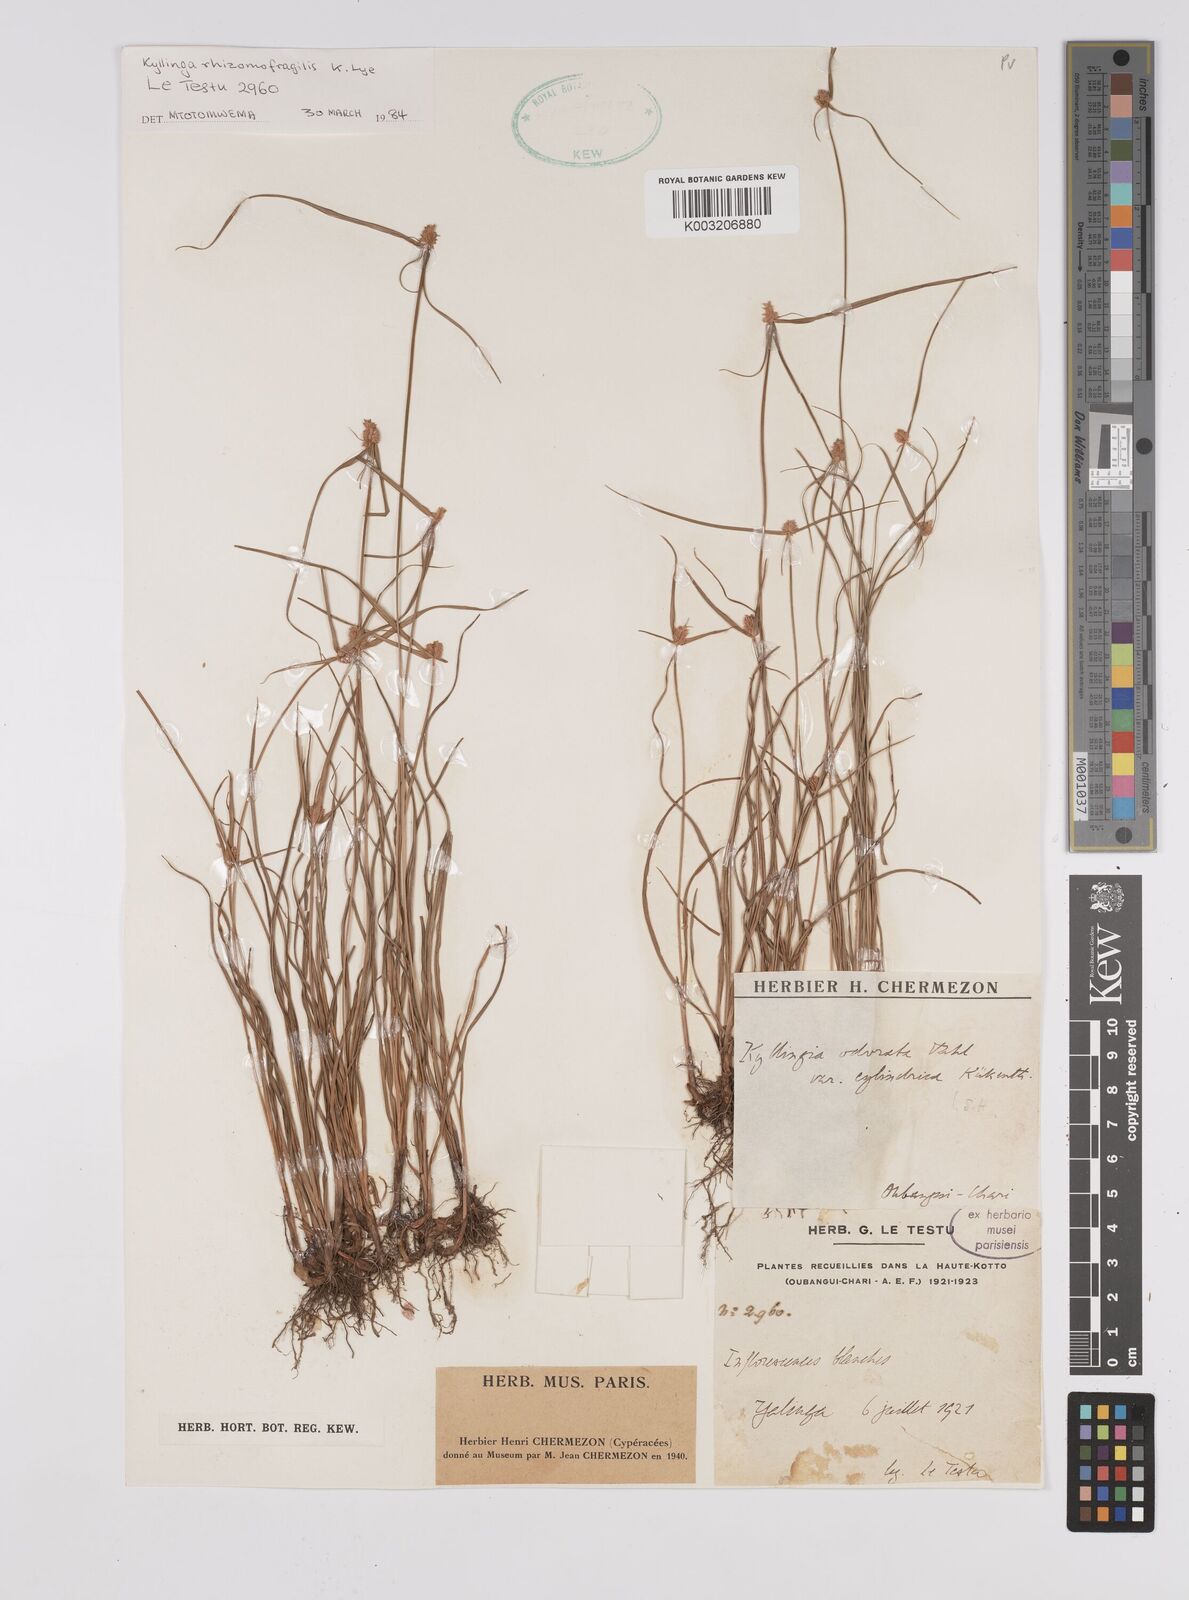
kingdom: Plantae
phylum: Tracheophyta
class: Liliopsida
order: Poales
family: Cyperaceae
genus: Cyperus
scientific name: Cyperus odoratus
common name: Fragrant flatsedge
